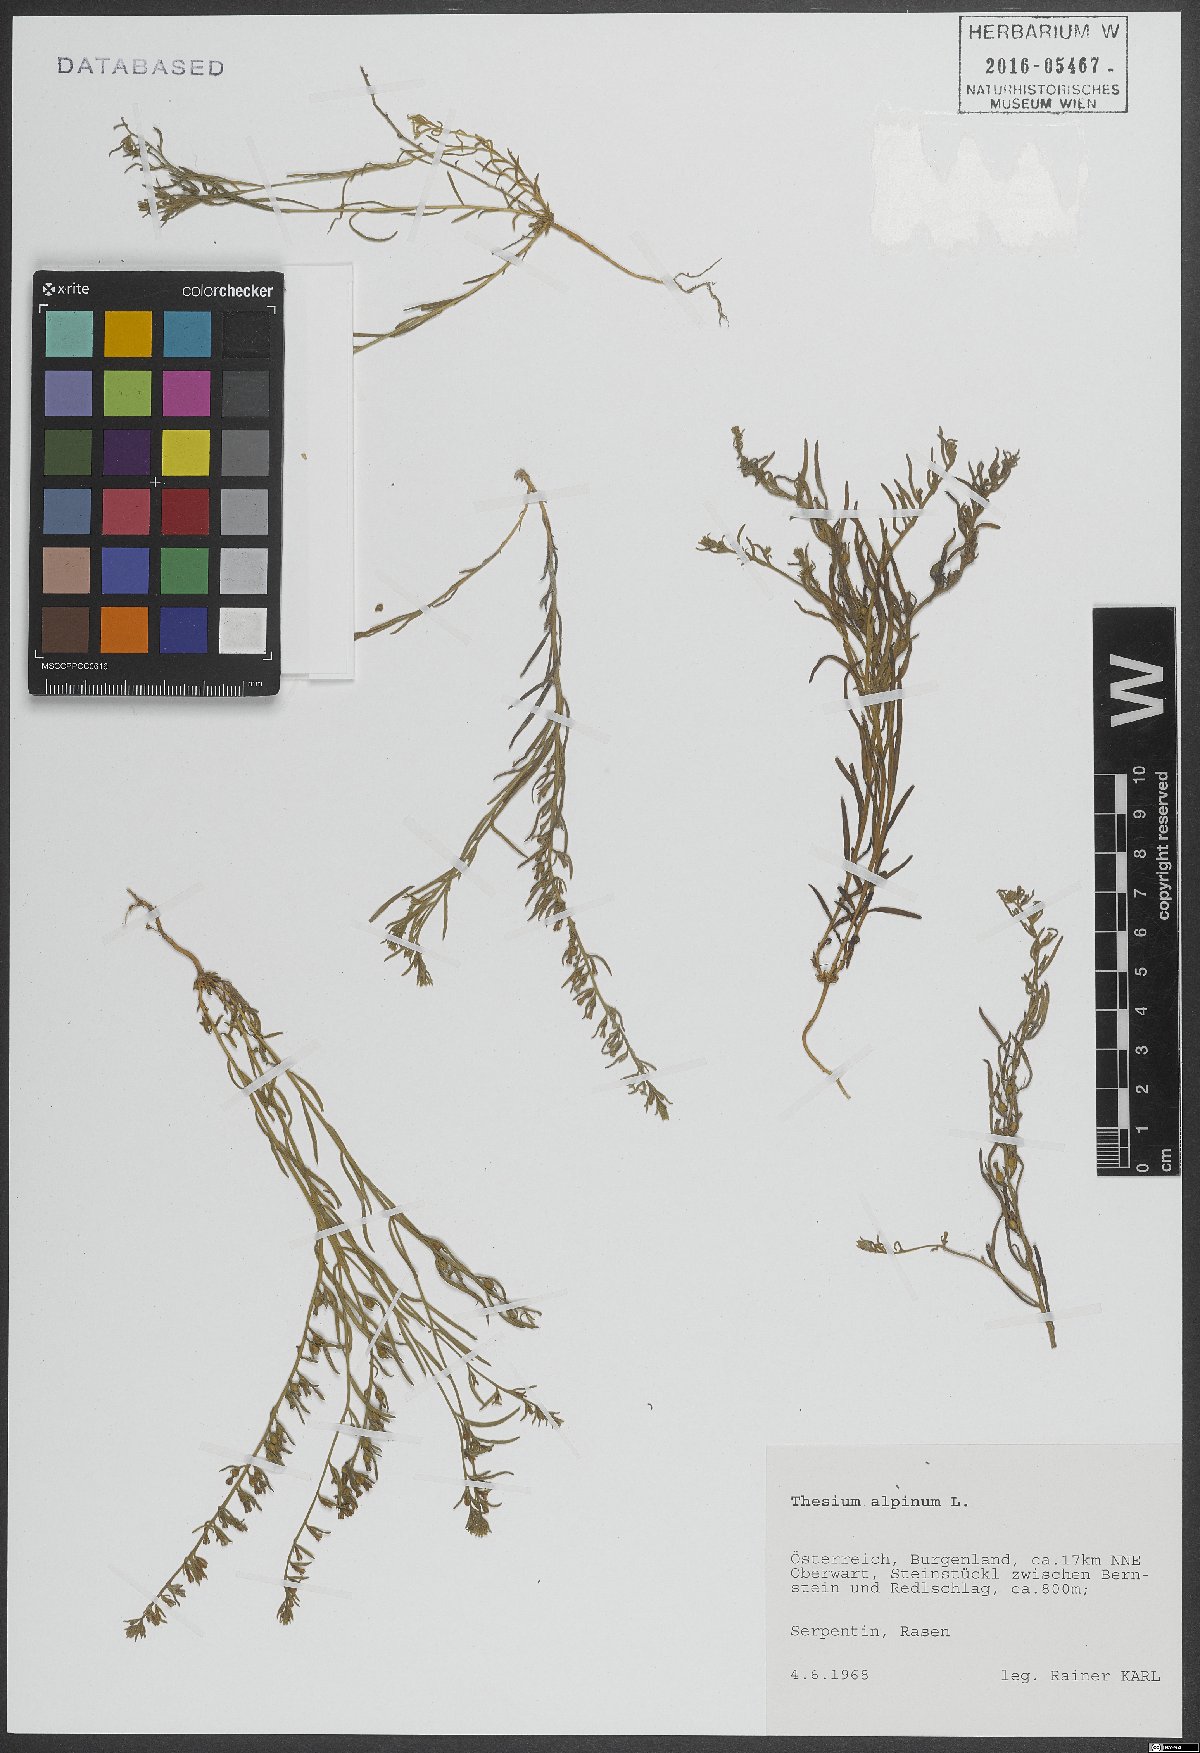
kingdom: Plantae
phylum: Tracheophyta
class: Magnoliopsida
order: Santalales
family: Thesiaceae
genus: Thesium
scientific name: Thesium alpinum
